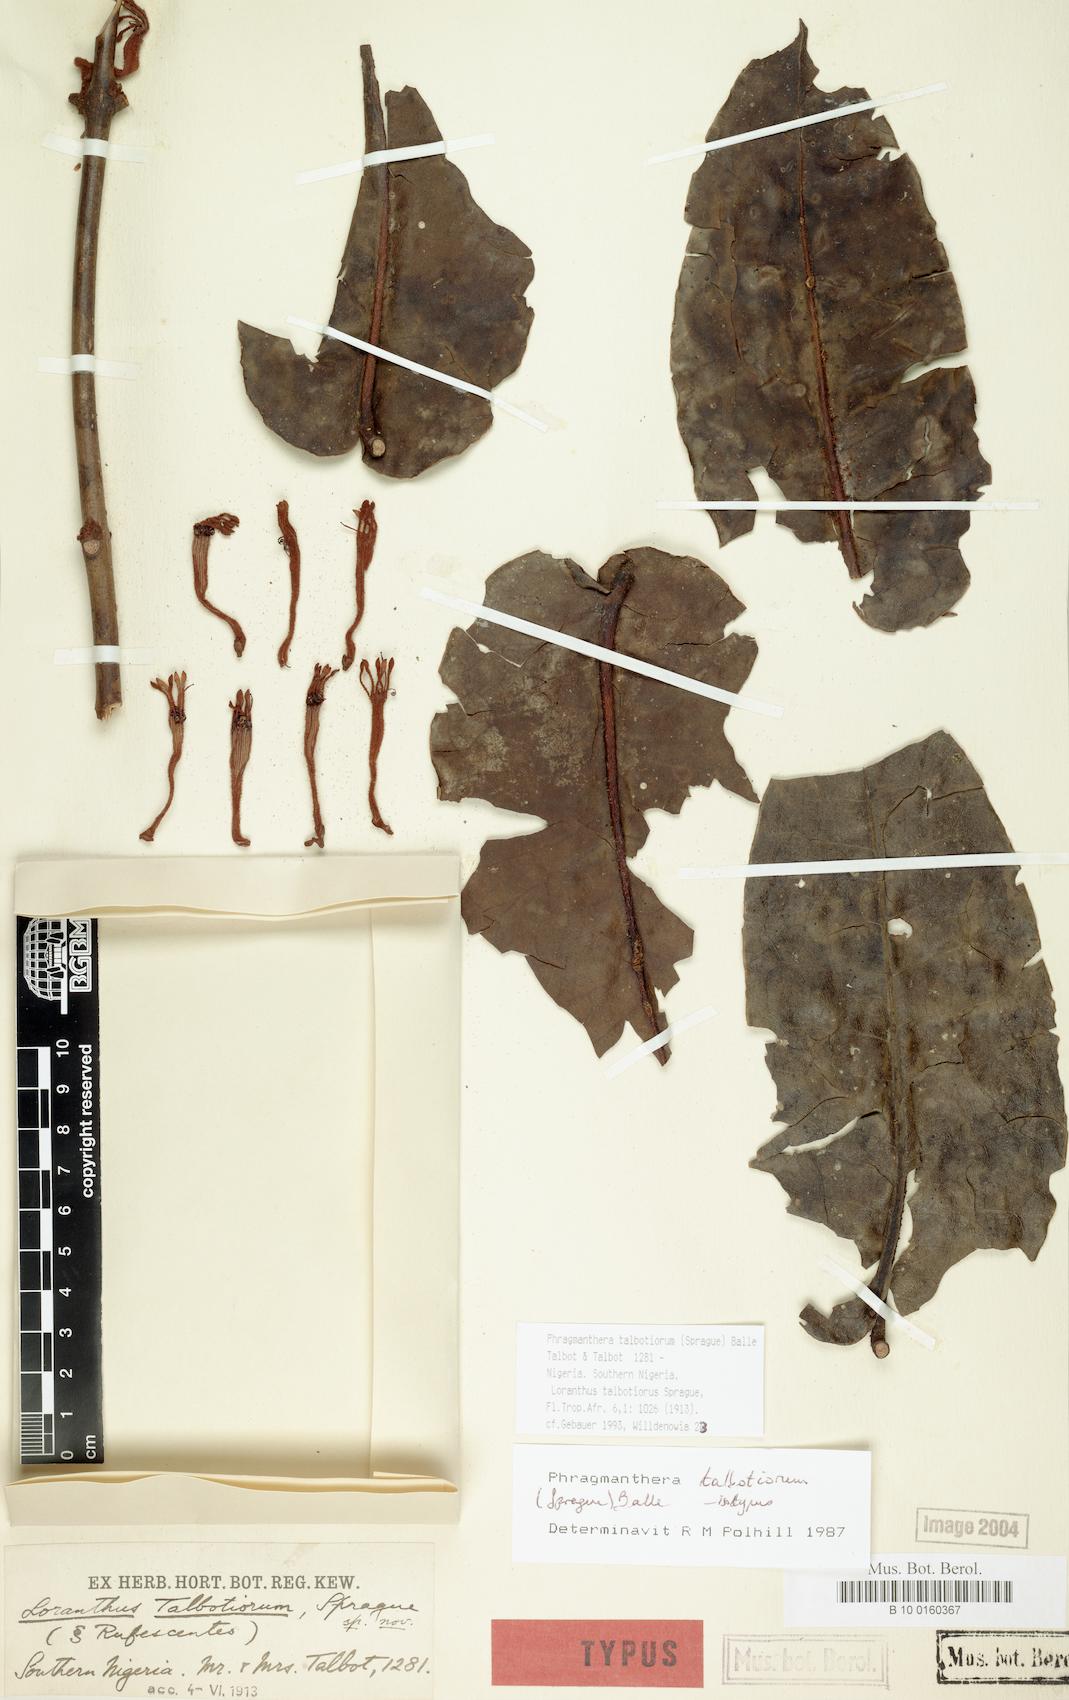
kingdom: Plantae
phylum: Tracheophyta
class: Magnoliopsida
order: Santalales
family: Loranthaceae
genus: Phragmanthera
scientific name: Phragmanthera talbotiorum
